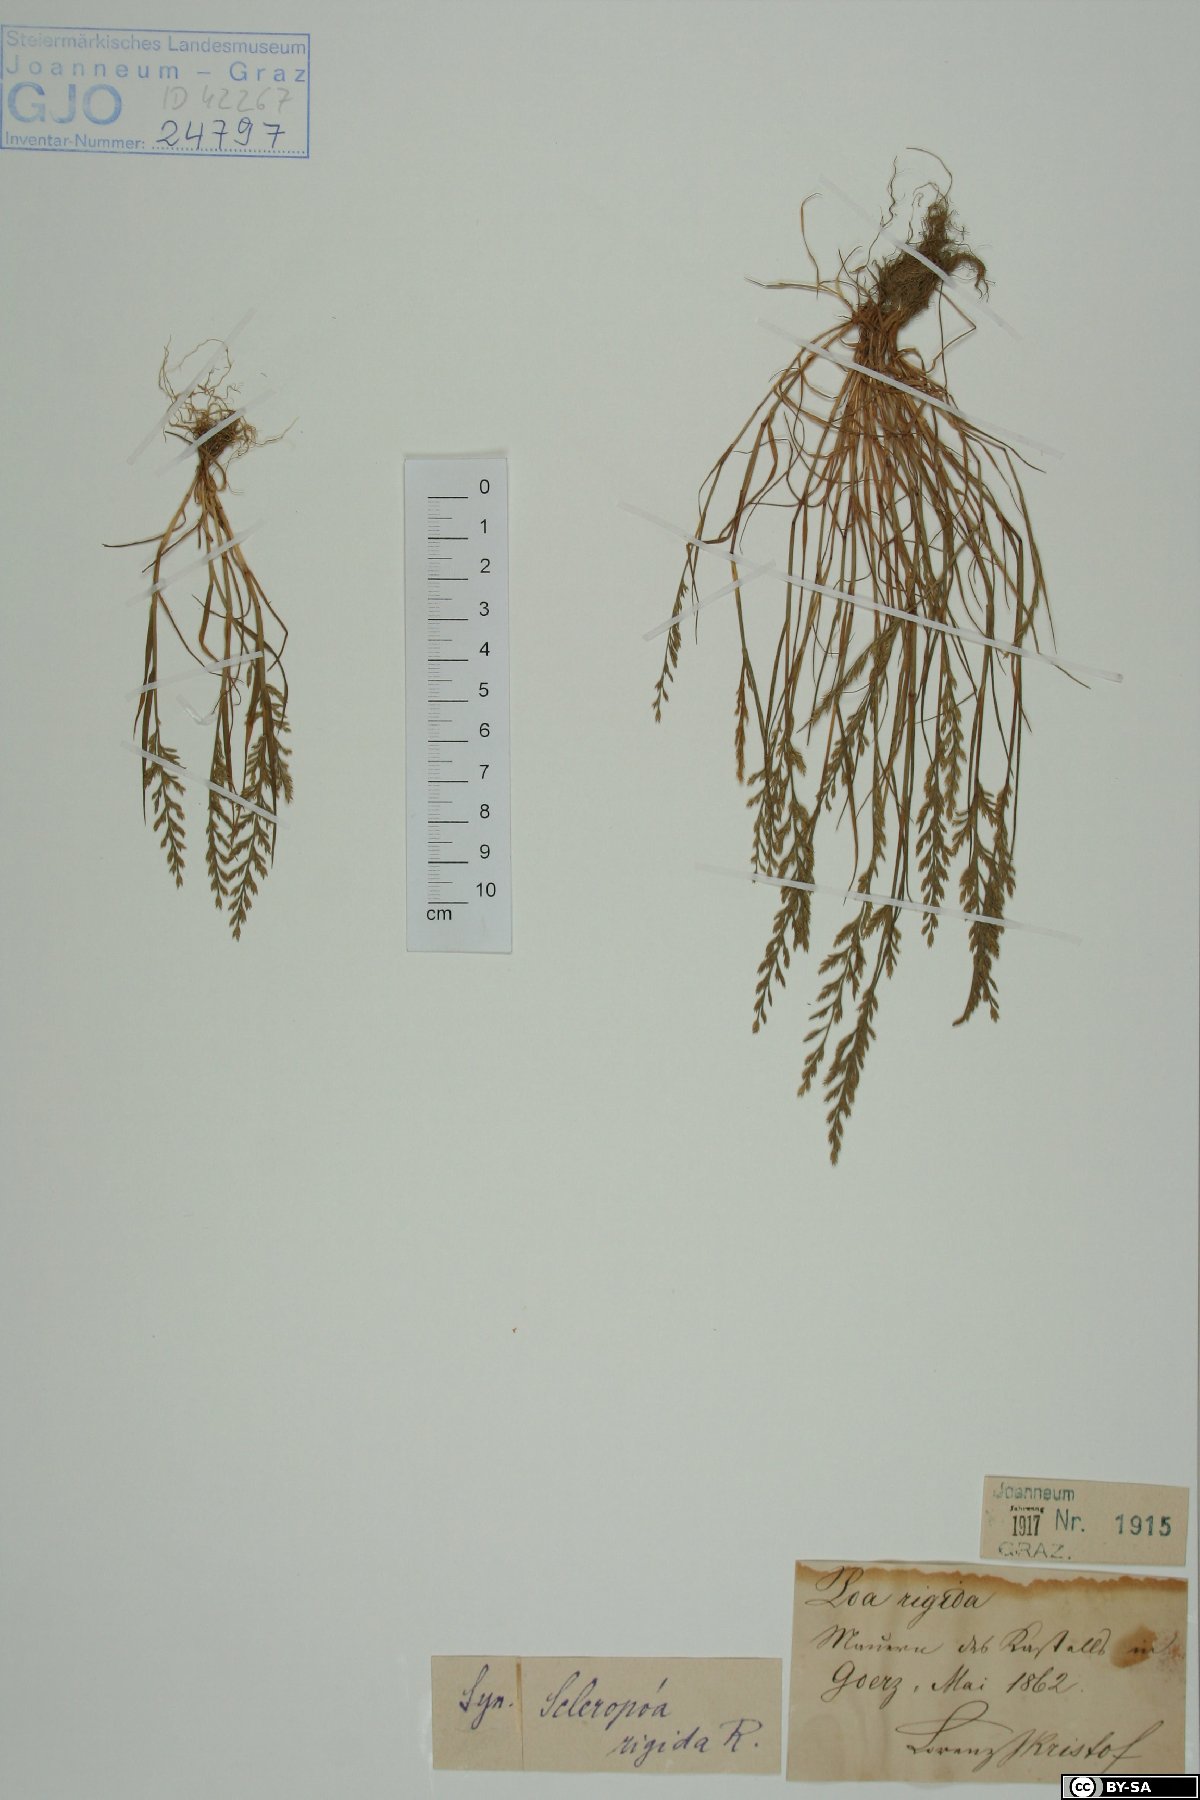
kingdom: Plantae
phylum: Tracheophyta
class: Liliopsida
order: Poales
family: Poaceae
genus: Catapodium
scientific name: Catapodium rigidum
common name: Fern-grass
